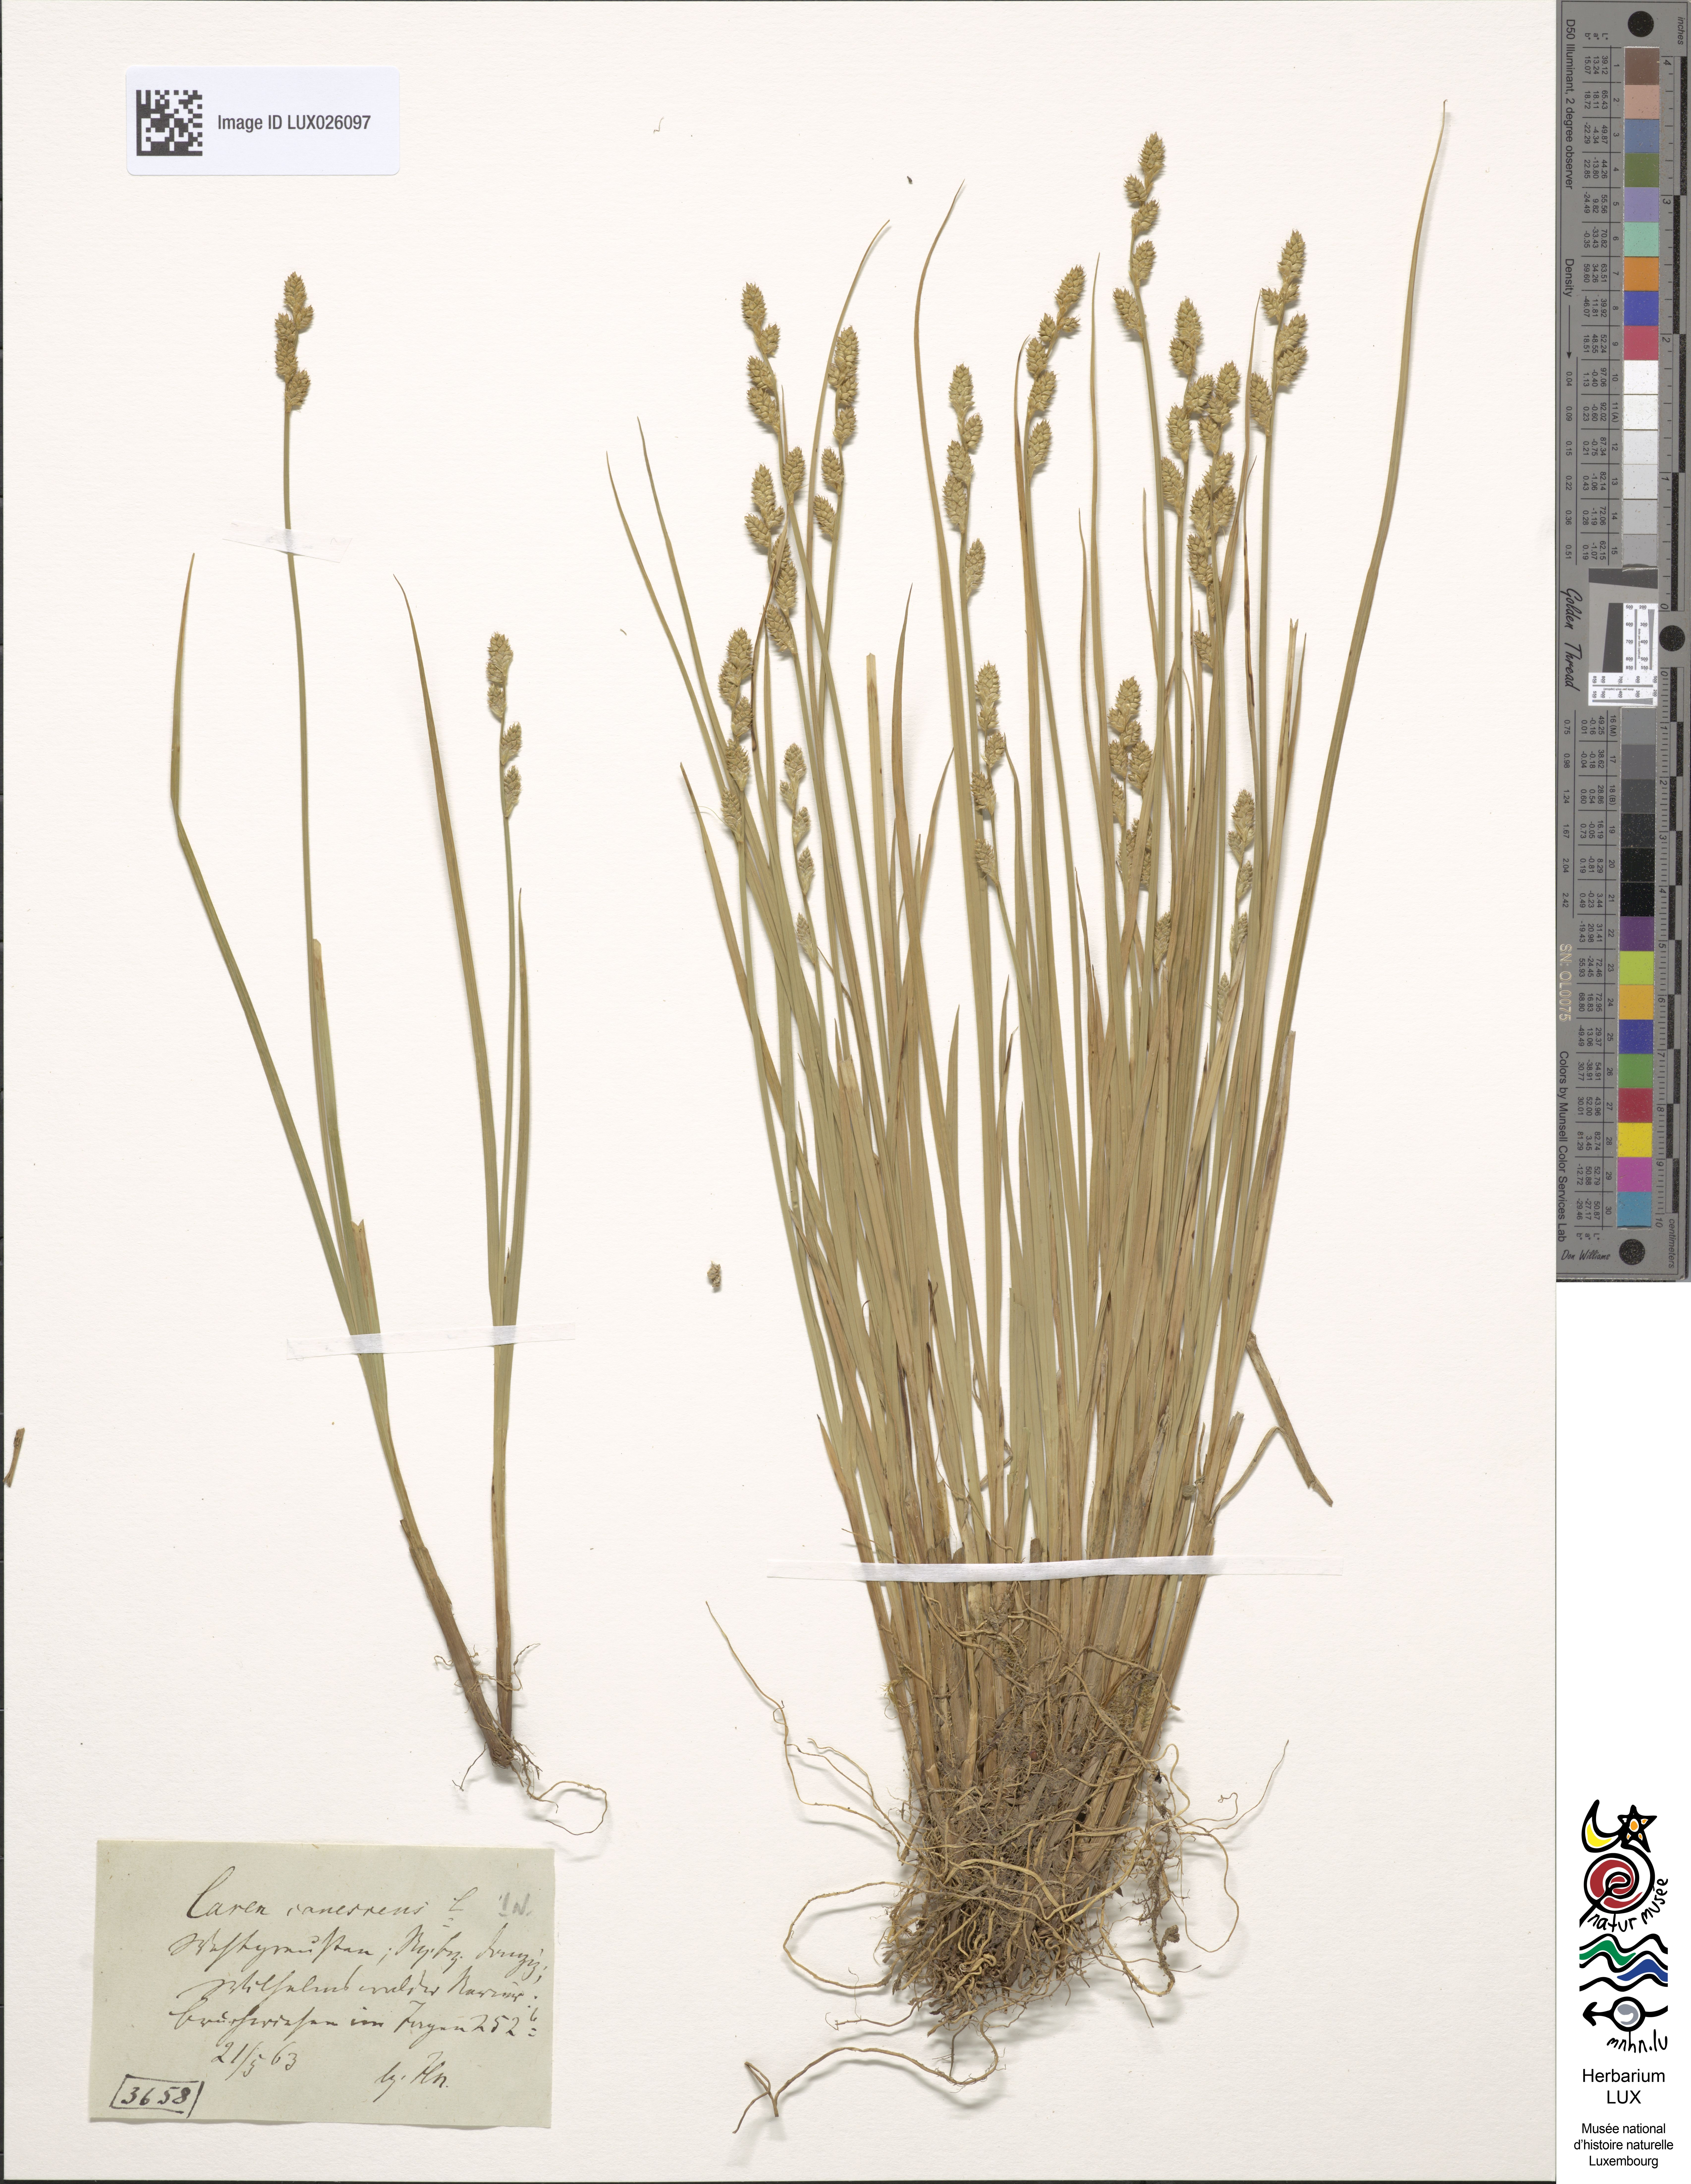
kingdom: Plantae
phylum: Tracheophyta
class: Liliopsida
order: Poales
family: Cyperaceae
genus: Carex
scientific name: Carex canescens
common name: White sedge
